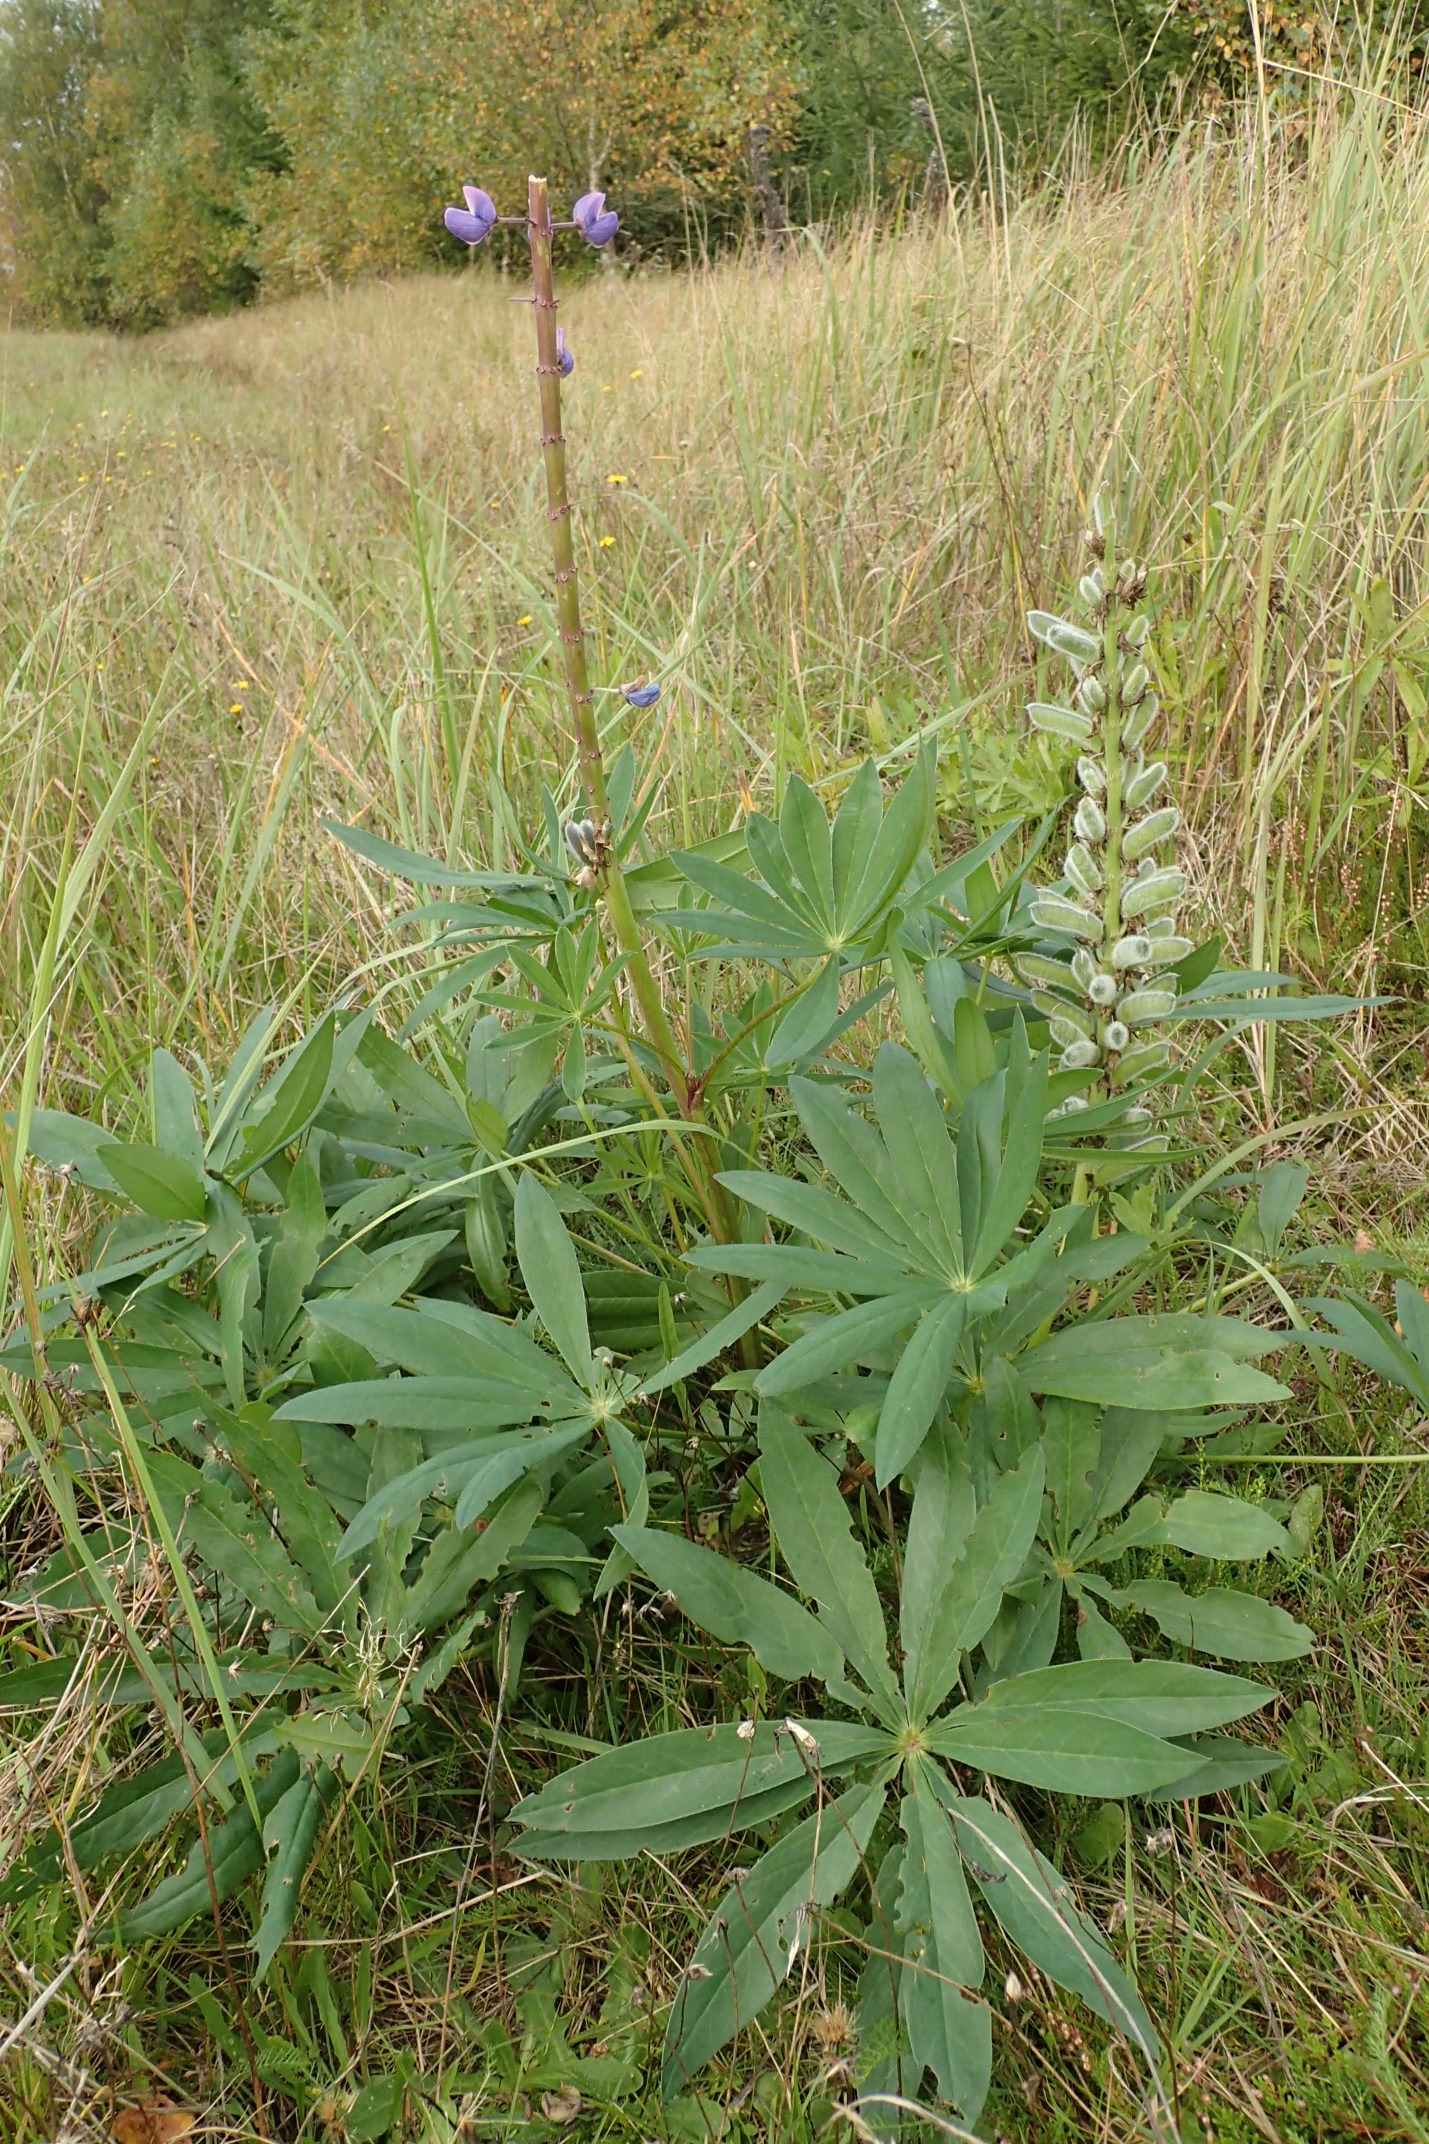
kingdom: Plantae
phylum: Tracheophyta
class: Magnoliopsida
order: Fabales
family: Fabaceae
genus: Lupinus
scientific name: Lupinus polyphyllus
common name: Mangebladet lupin
